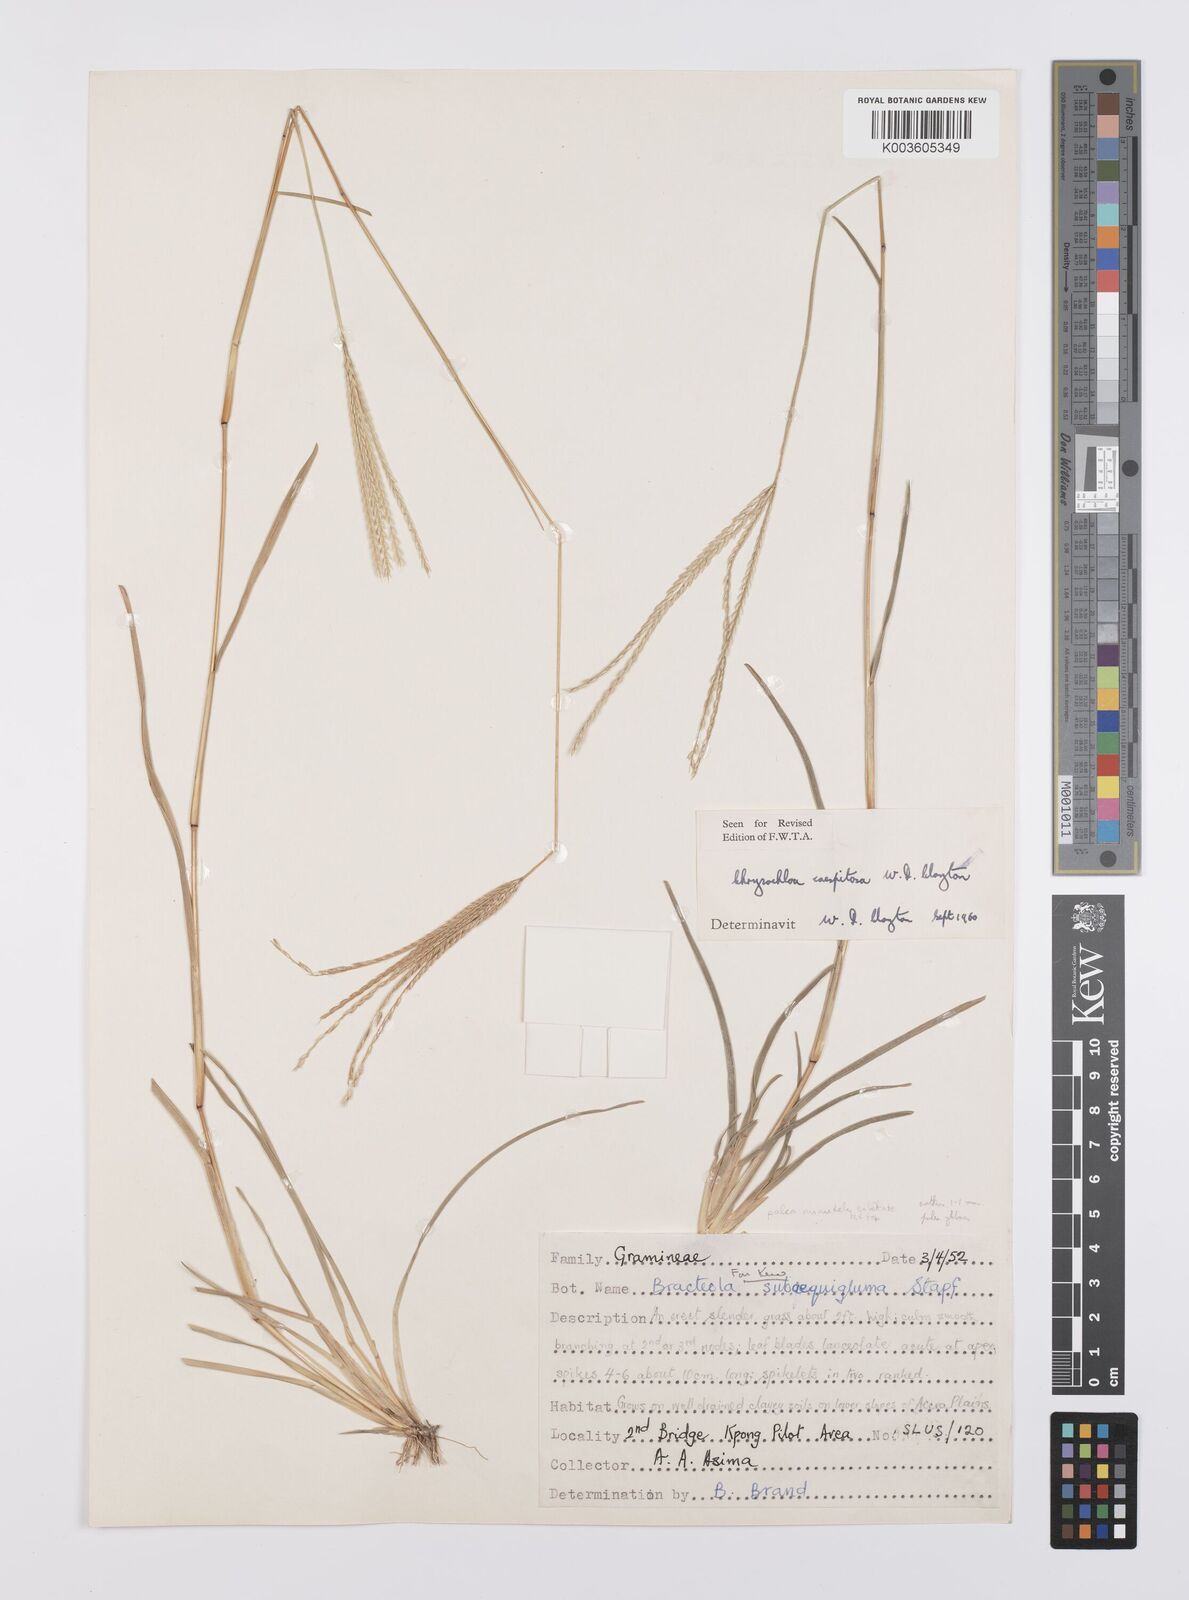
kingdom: Plantae
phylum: Tracheophyta
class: Liliopsida
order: Poales
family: Poaceae
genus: Chrysochloa
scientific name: Chrysochloa hindsii
